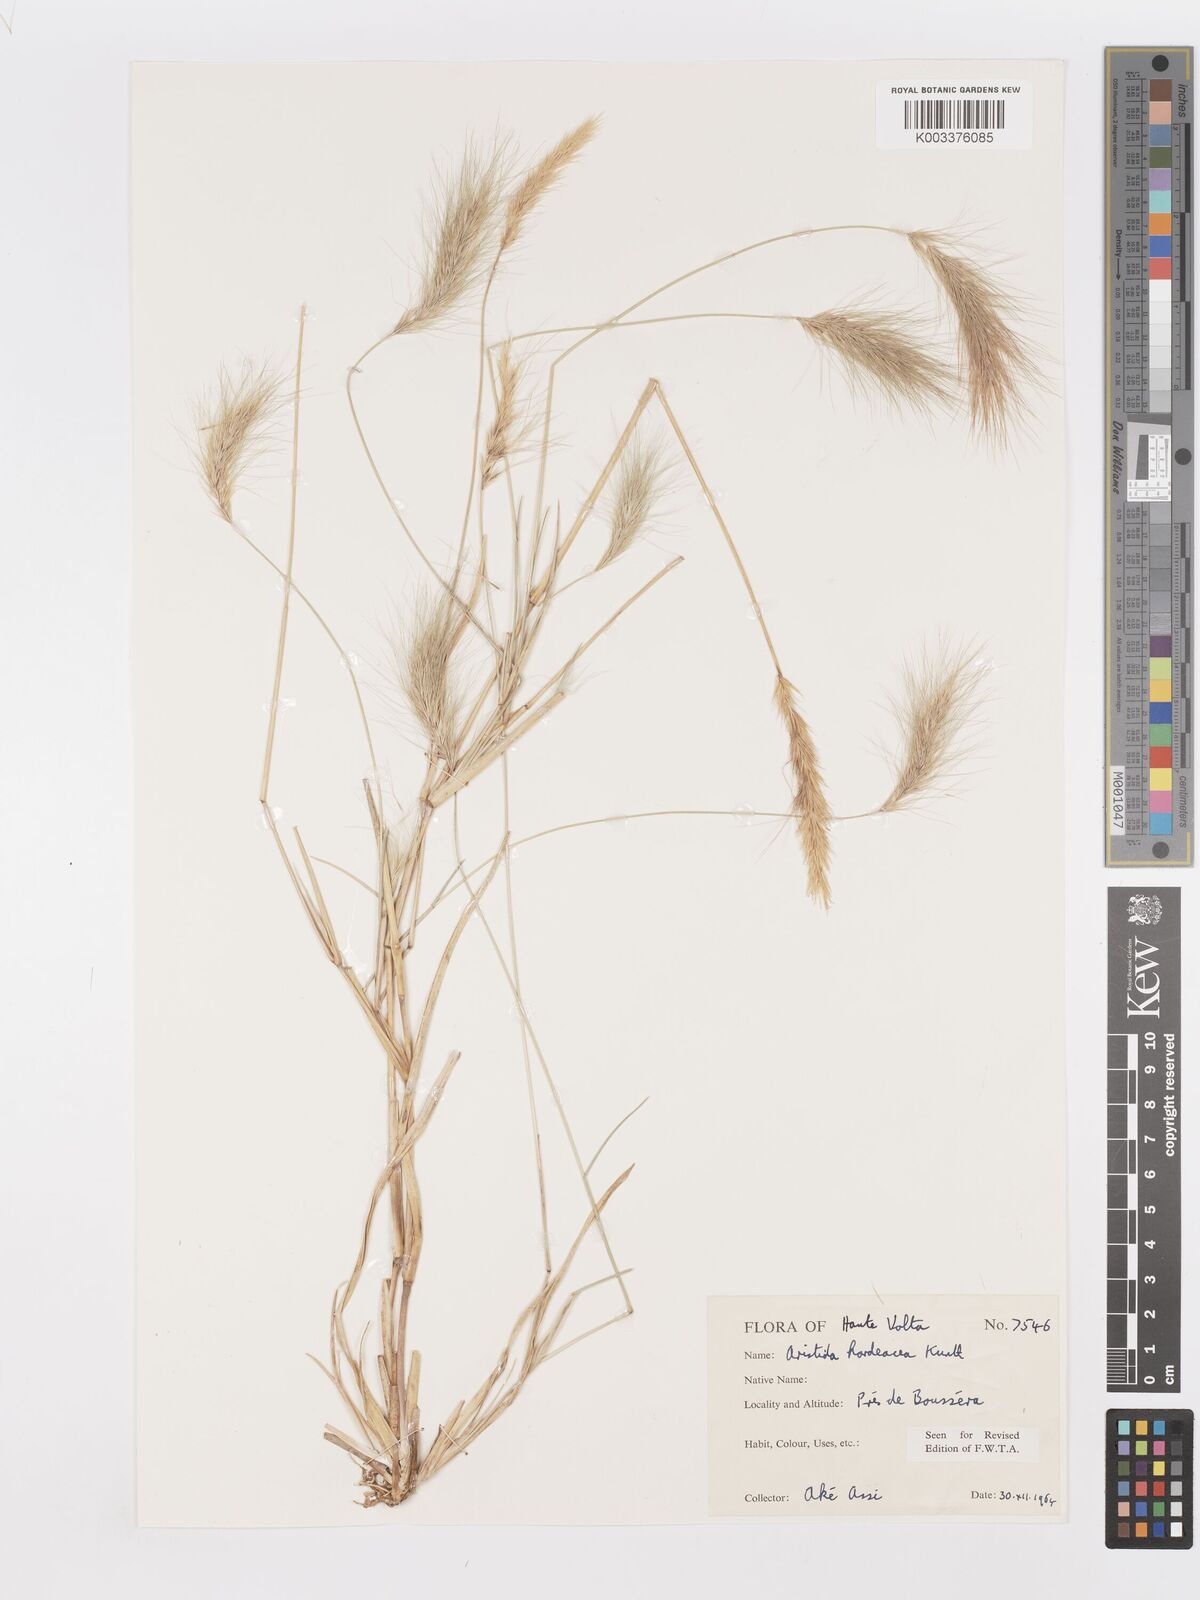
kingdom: Plantae
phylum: Tracheophyta
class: Liliopsida
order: Poales
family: Poaceae
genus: Aristida
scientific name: Aristida hordeacea
